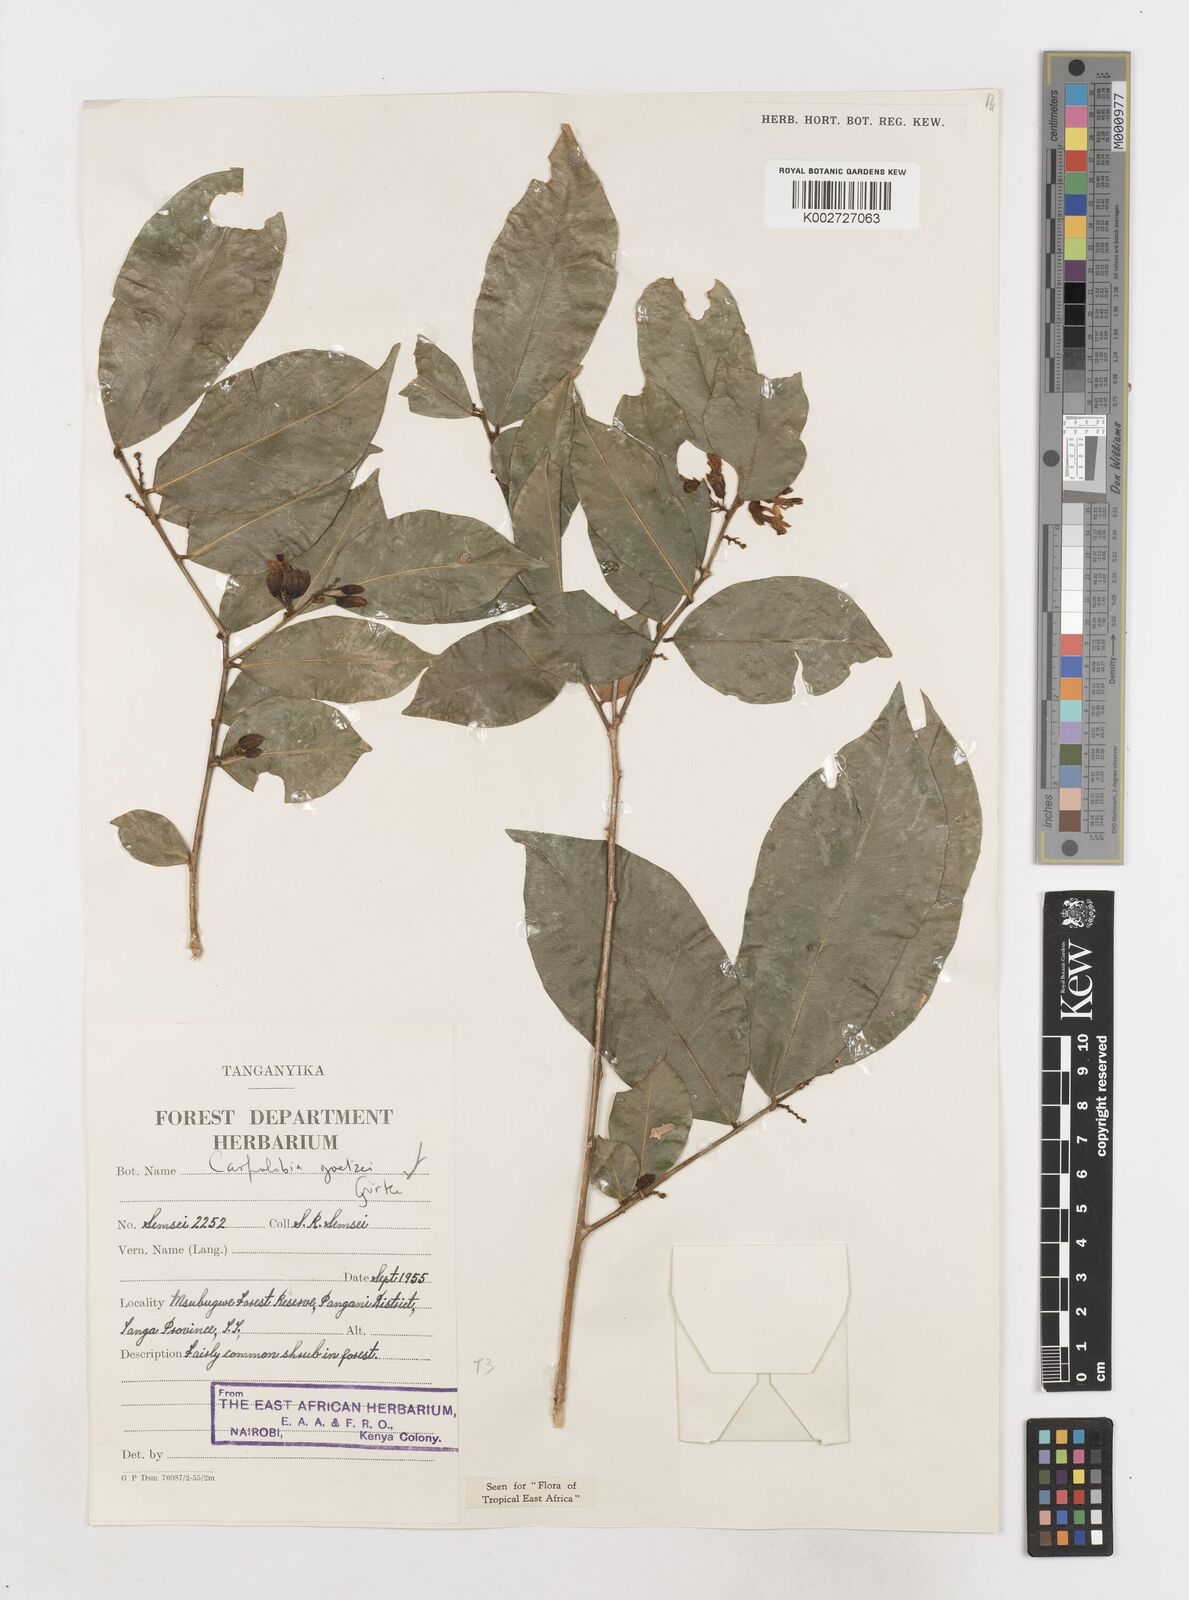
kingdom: Plantae
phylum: Tracheophyta
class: Magnoliopsida
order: Fabales
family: Polygalaceae
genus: Carpolobia
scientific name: Carpolobia goetzei
